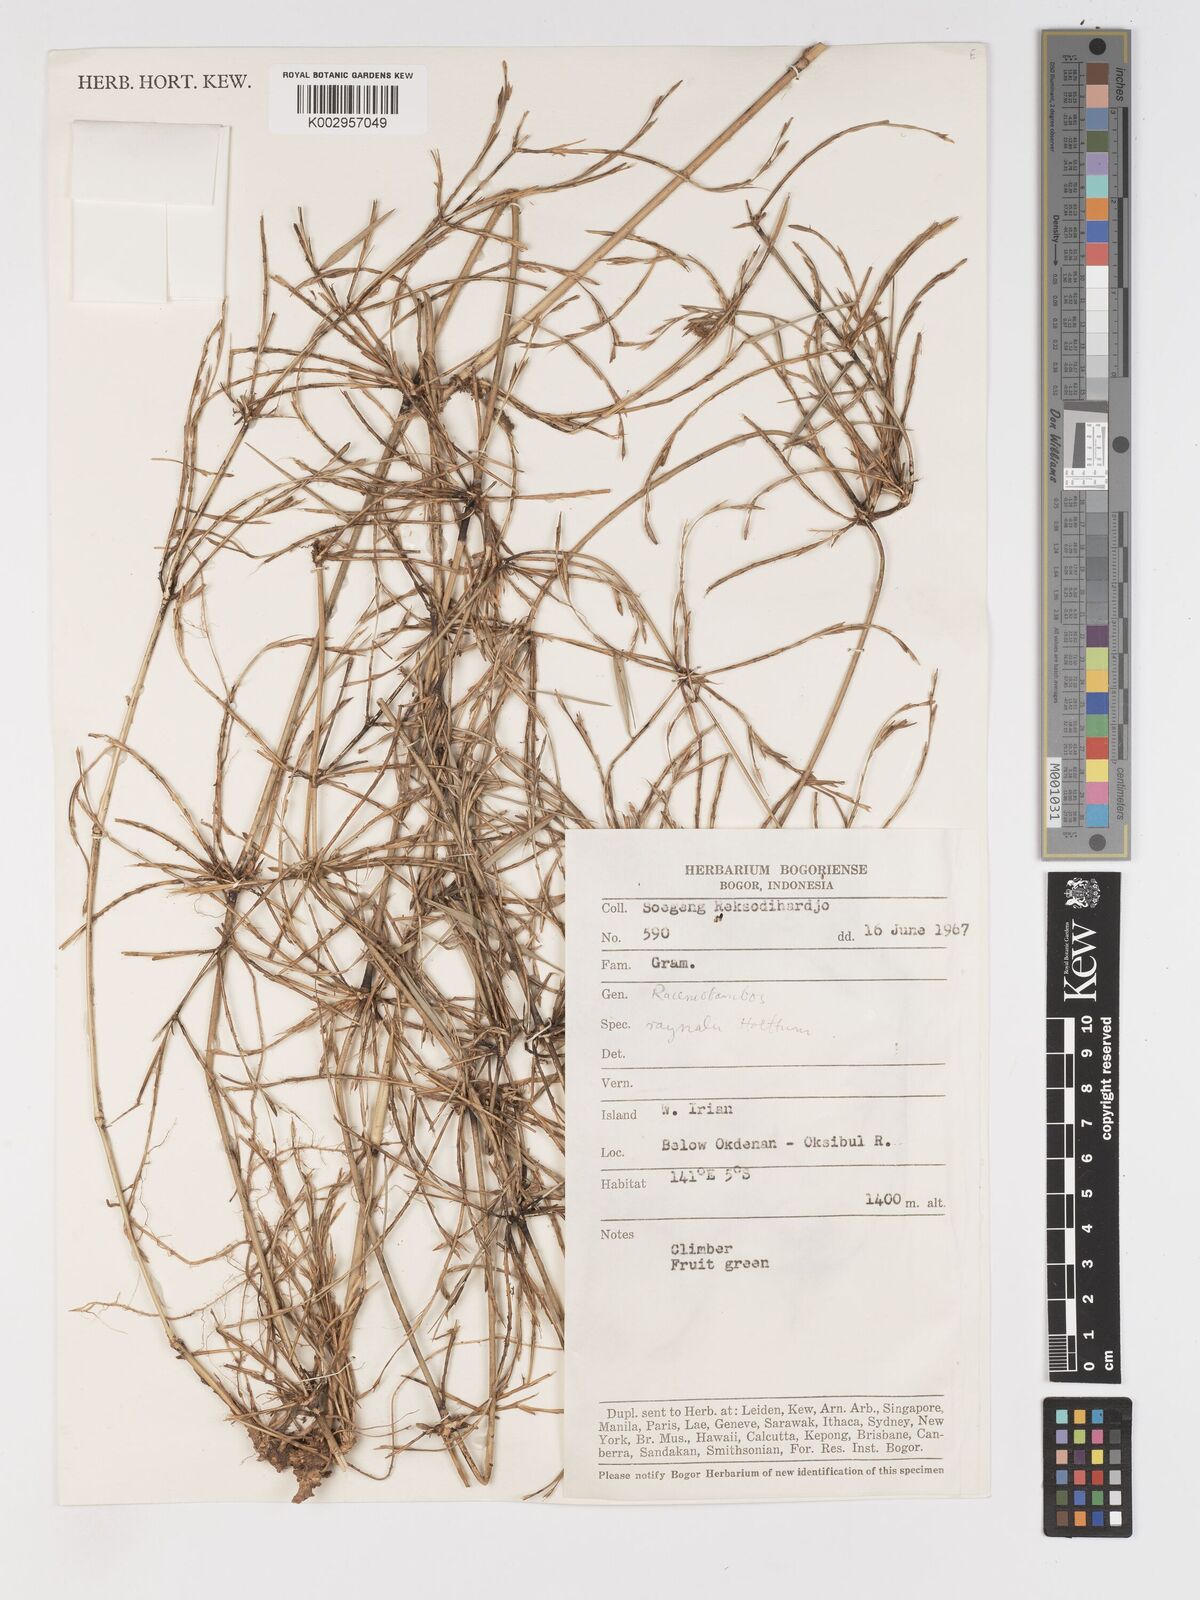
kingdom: Plantae
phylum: Tracheophyta
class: Liliopsida
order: Poales
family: Poaceae
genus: Racemobambos
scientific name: Racemobambos raynalii
